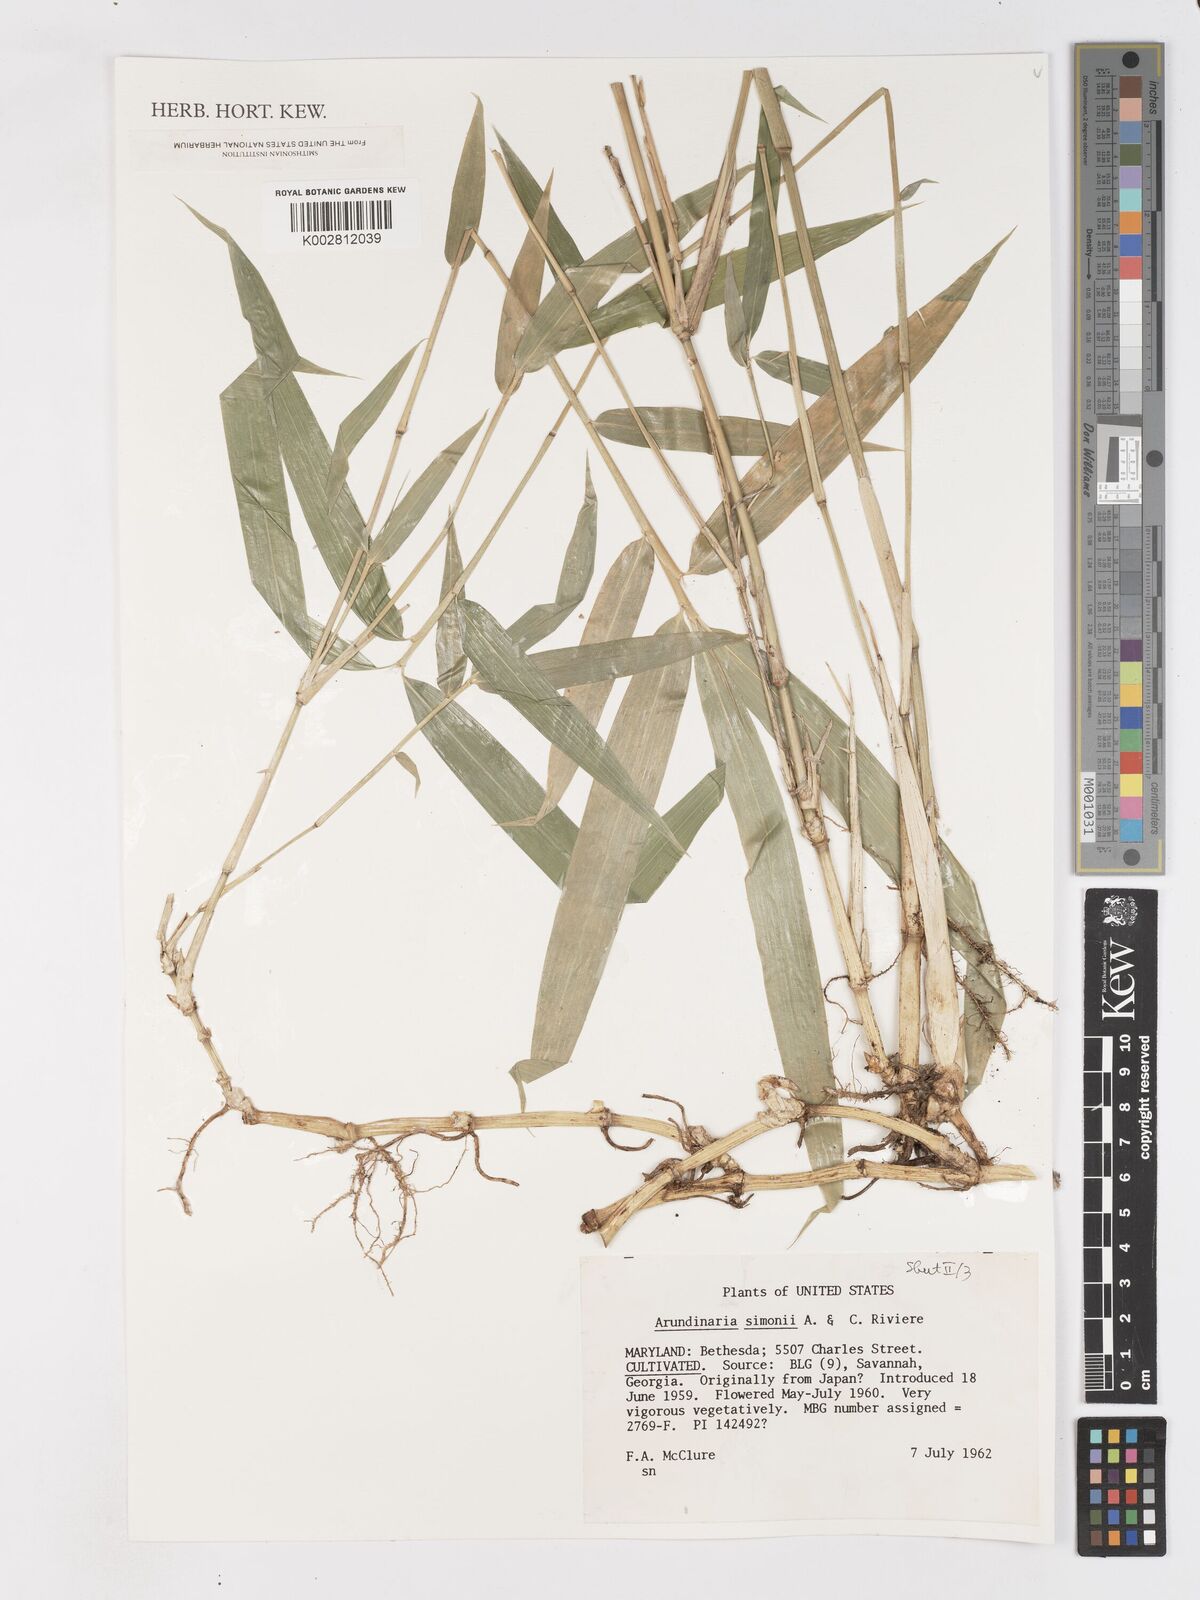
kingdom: Plantae
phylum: Tracheophyta
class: Liliopsida
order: Poales
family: Poaceae
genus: Pleioblastus
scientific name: Pleioblastus simonii
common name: Simon bamboo
